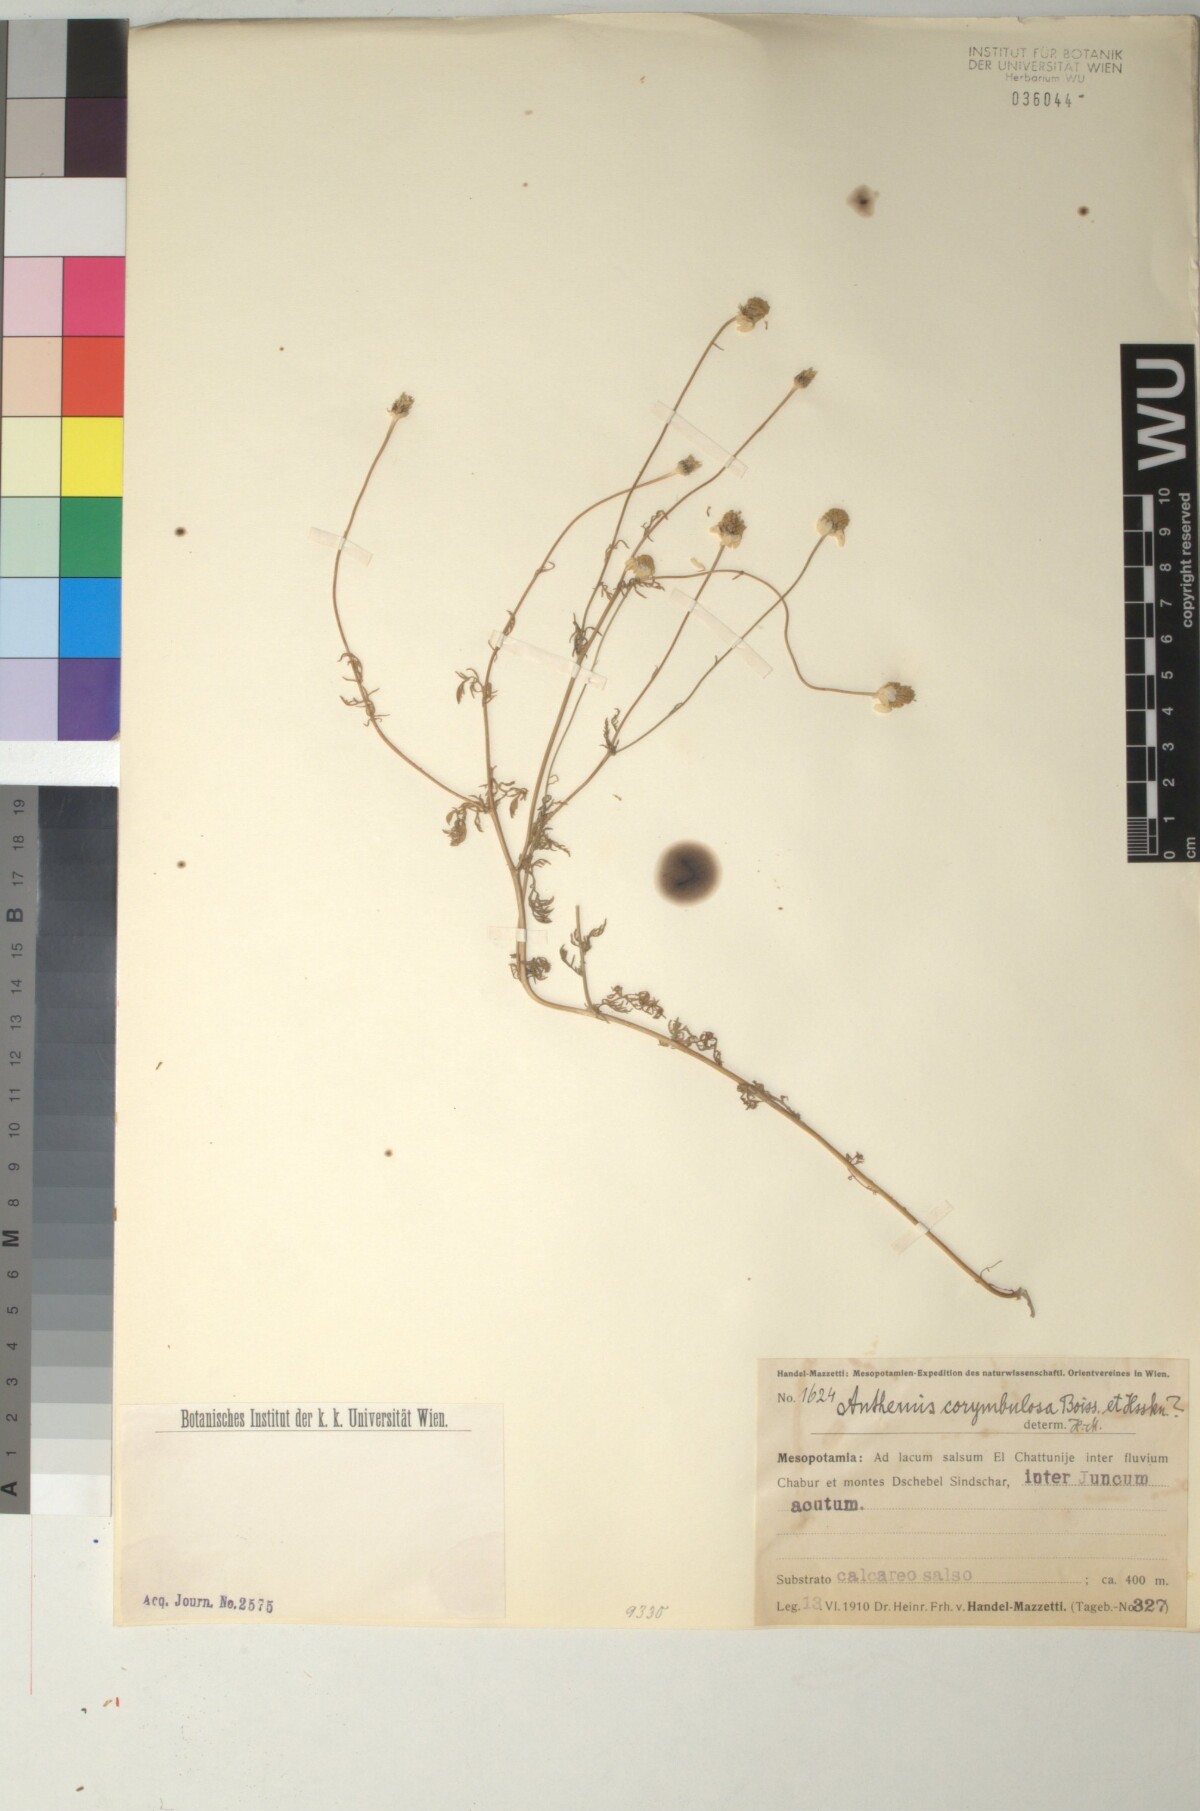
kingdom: Plantae
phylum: Tracheophyta
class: Magnoliopsida
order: Asterales
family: Asteraceae
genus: Anthemis
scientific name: Anthemis corymbulosa
